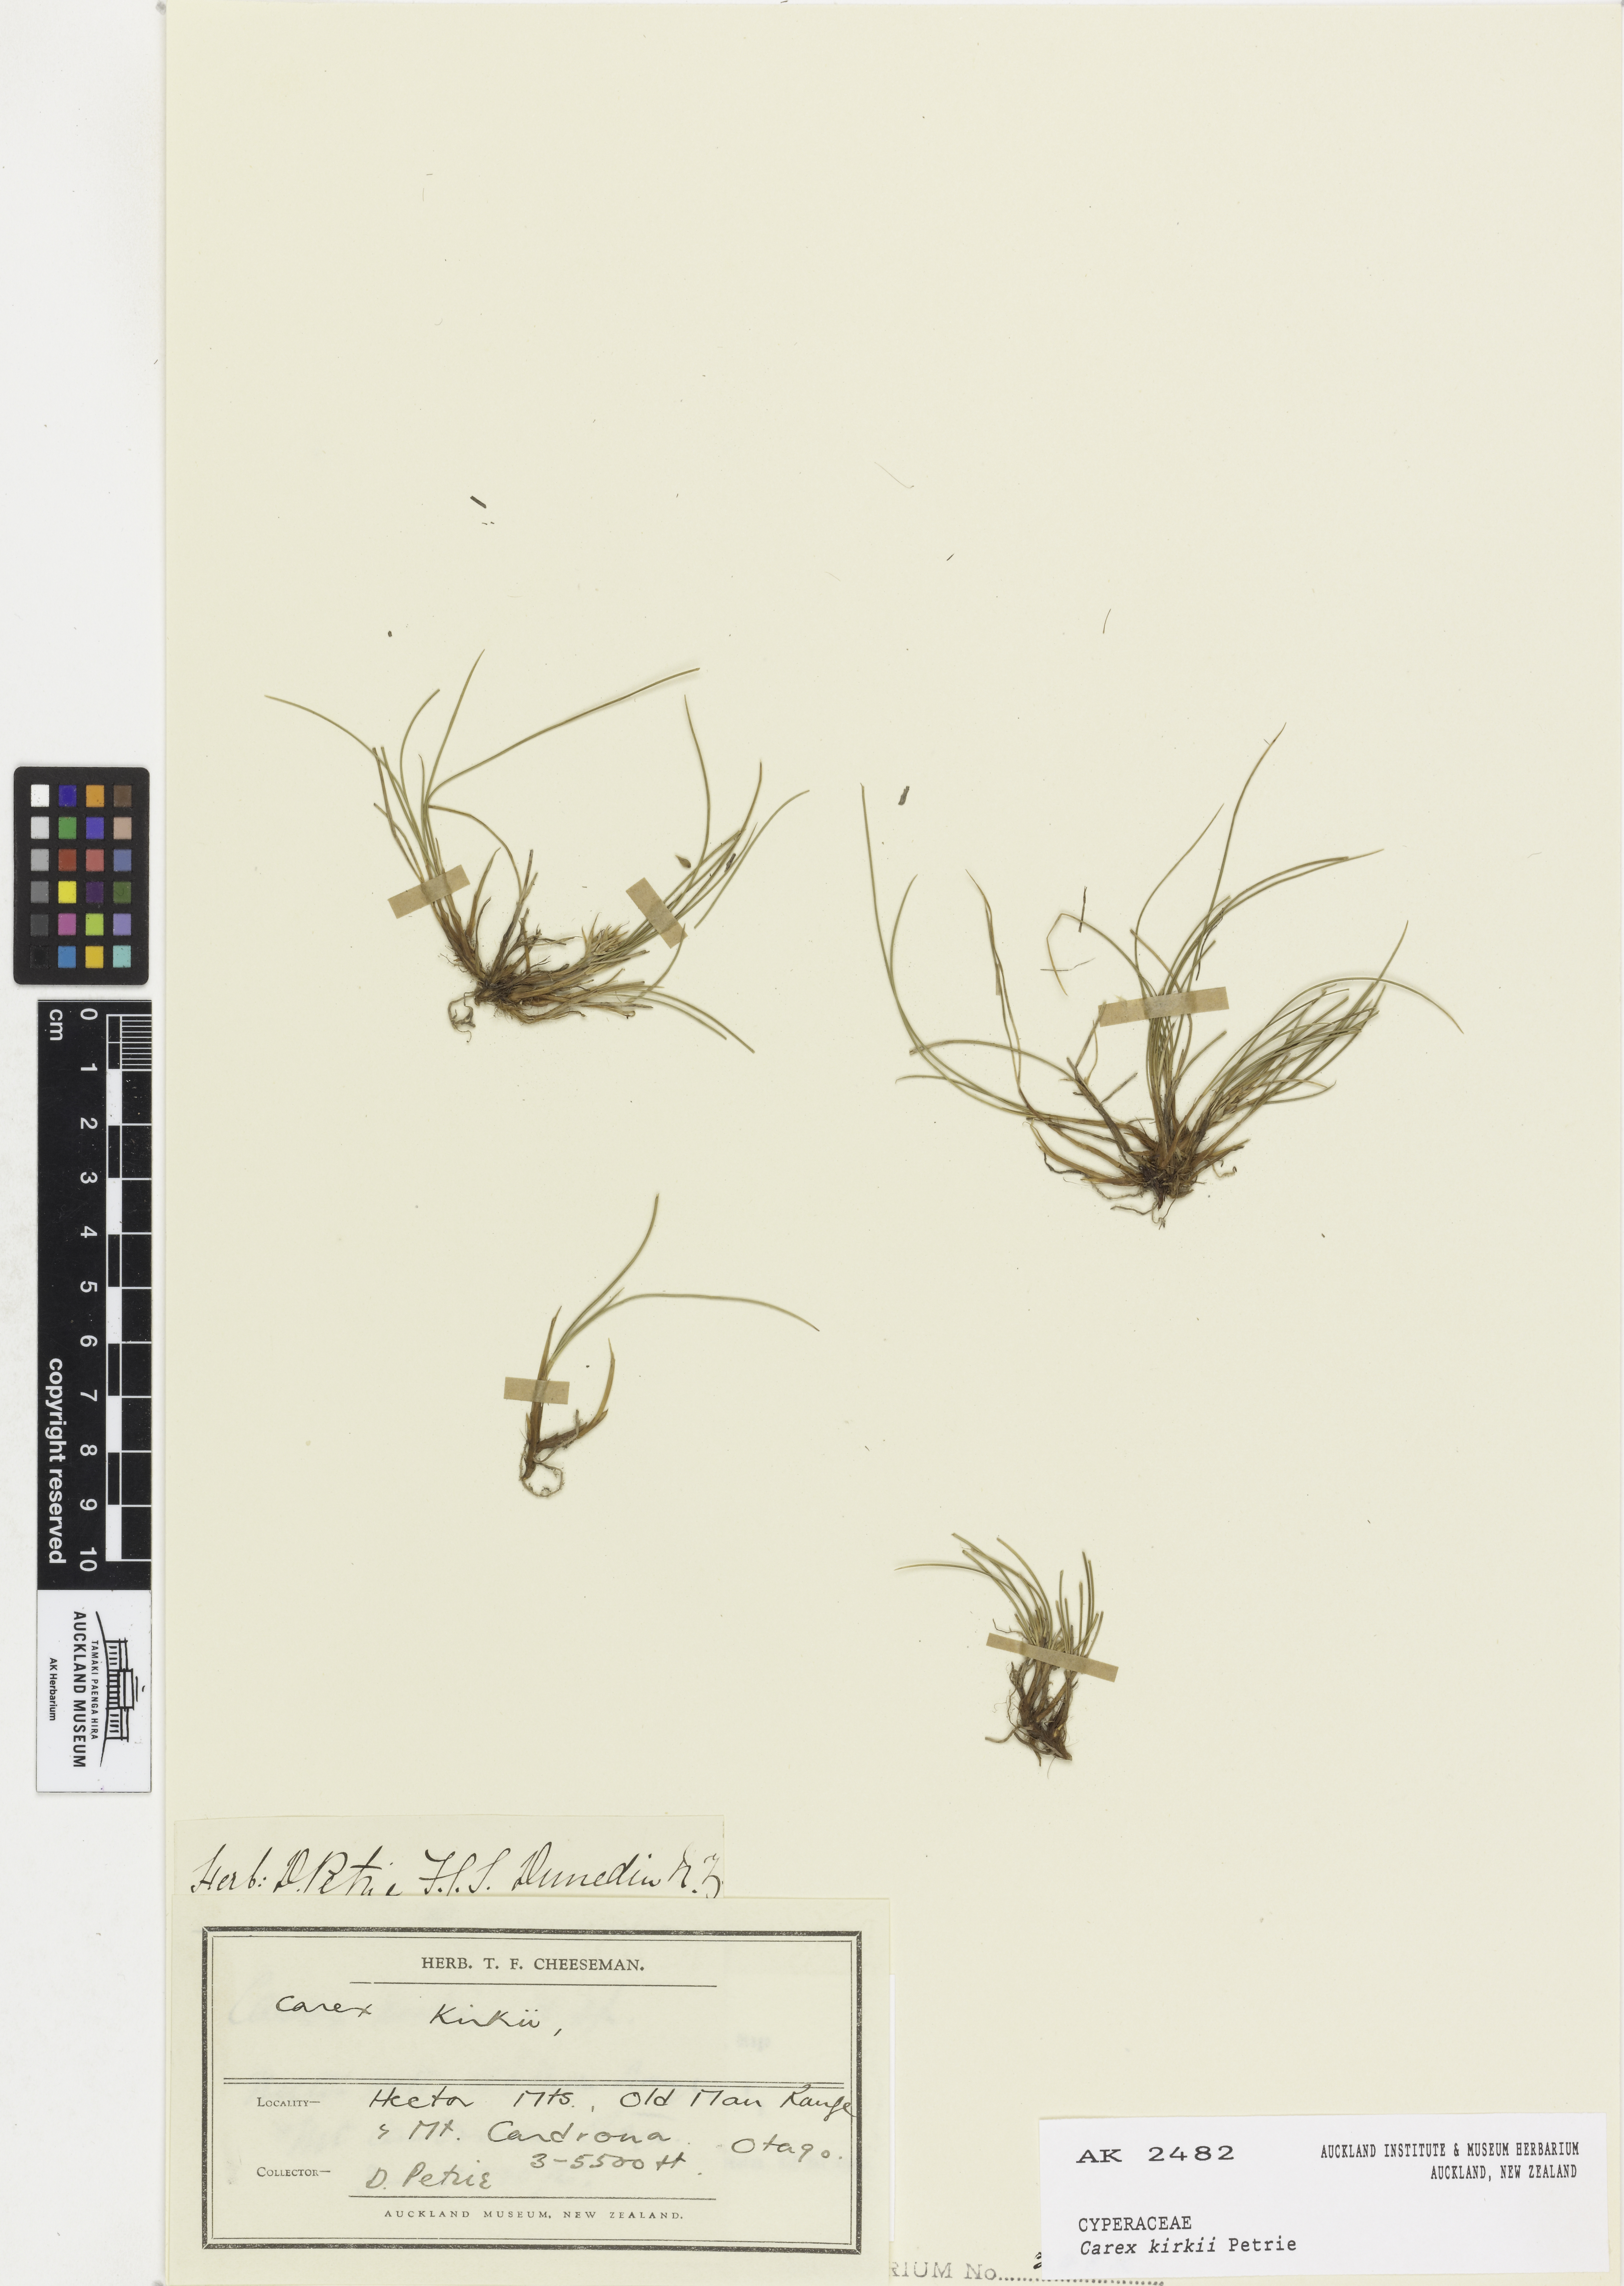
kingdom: Plantae
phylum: Tracheophyta
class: Liliopsida
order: Poales
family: Cyperaceae
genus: Carex
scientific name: Carex kirkii
